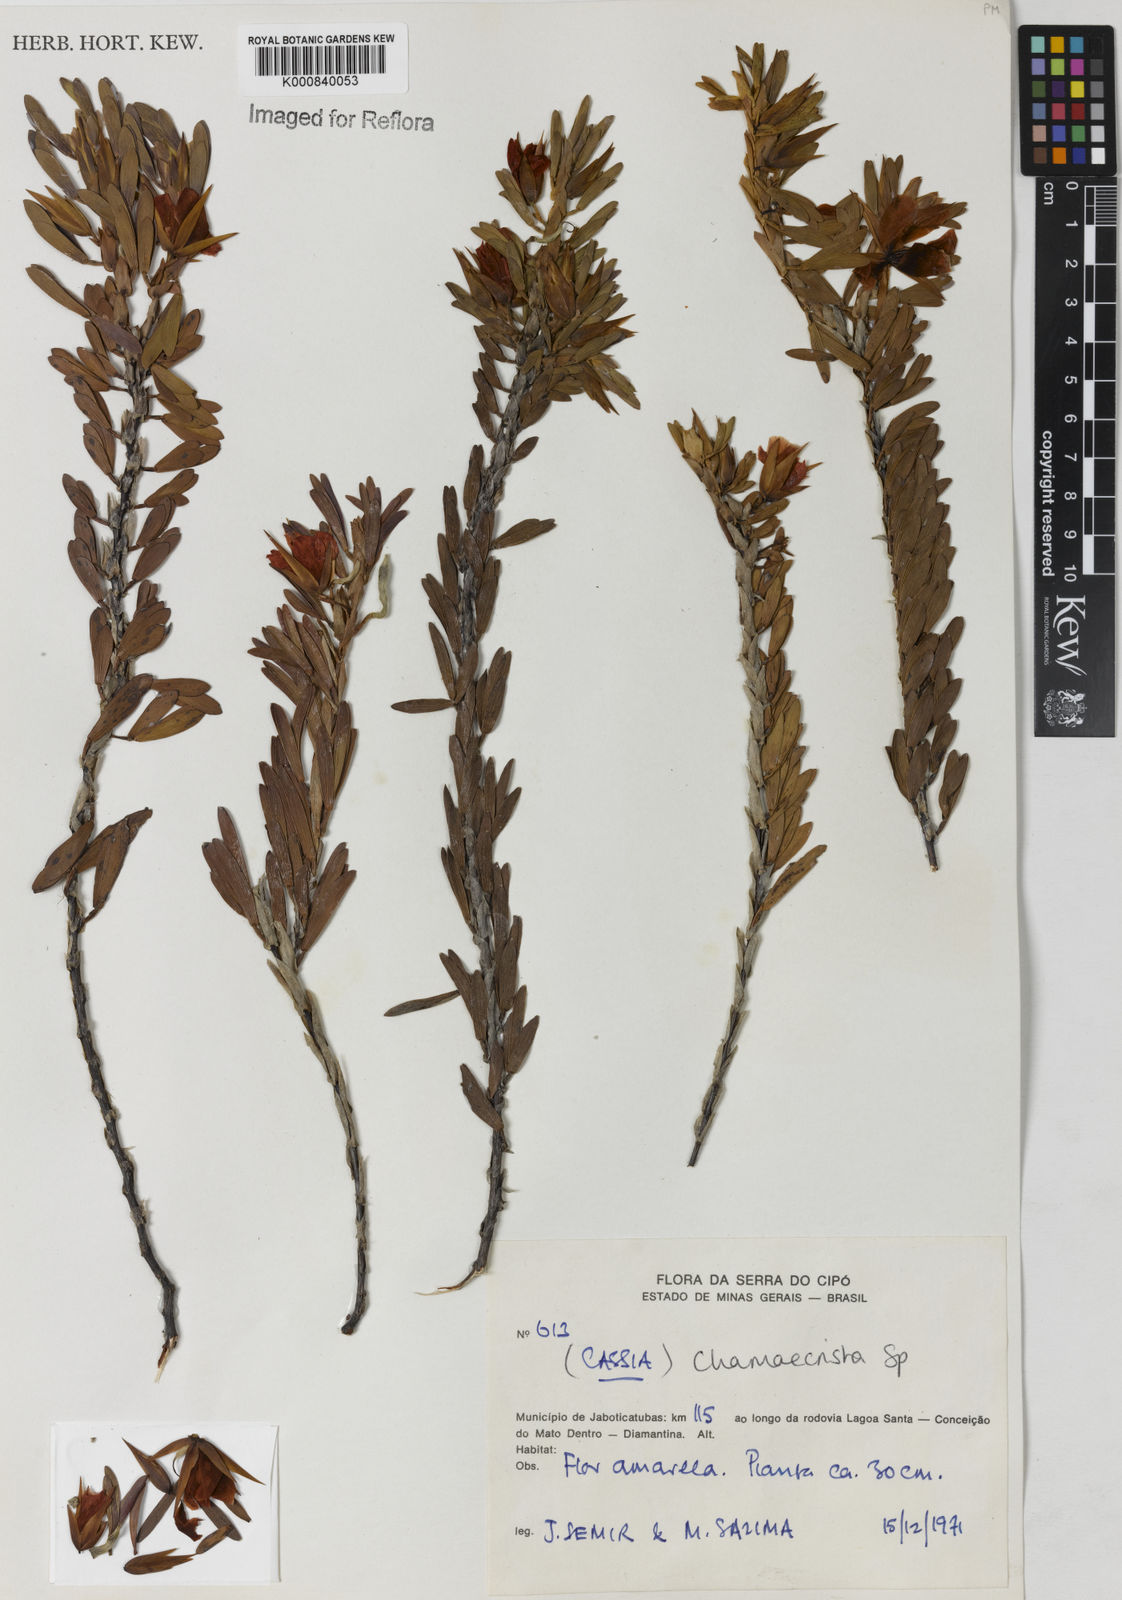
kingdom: Plantae
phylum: Tracheophyta
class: Magnoliopsida
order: Fabales
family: Fabaceae
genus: Chamaecrista
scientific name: Chamaecrista langsdorffii
